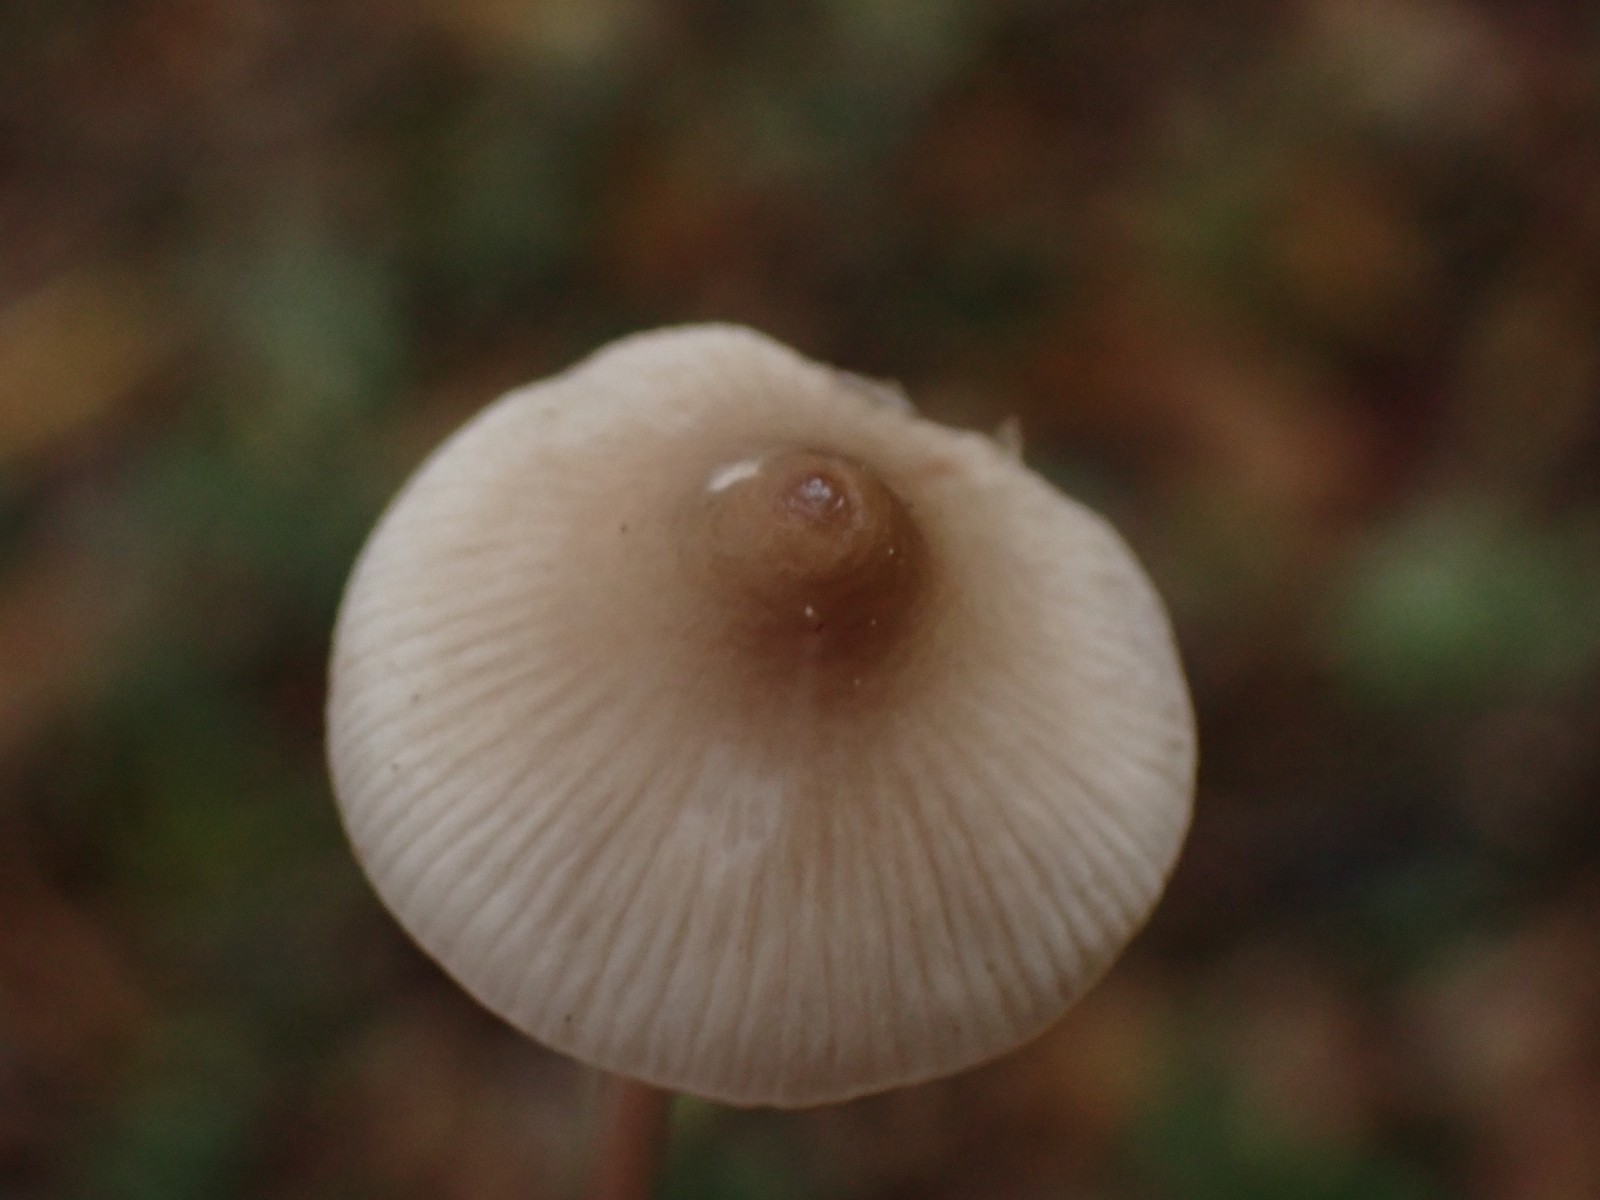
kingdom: Fungi
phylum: Basidiomycota
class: Agaricomycetes
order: Agaricales
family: Mycenaceae
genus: Mycena
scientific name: Mycena vitilis
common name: blankstokket huesvamp
